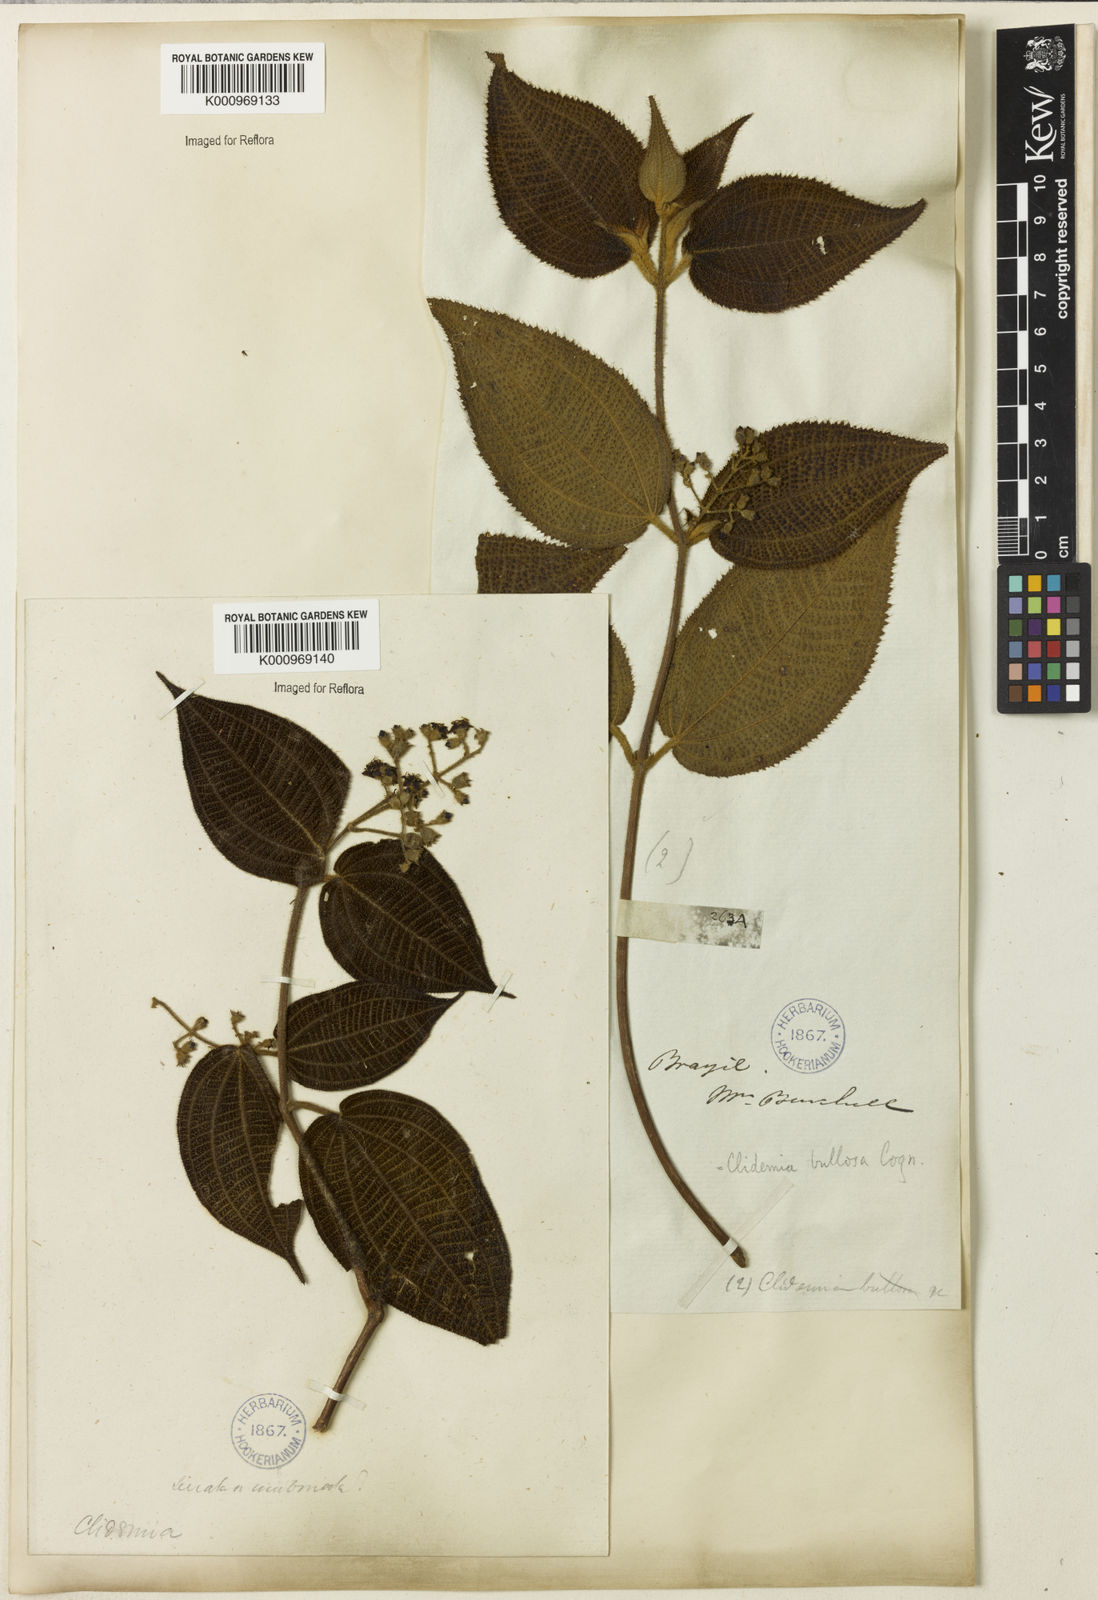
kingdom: Plantae
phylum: Tracheophyta
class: Magnoliopsida
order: Myrtales
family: Melastomataceae
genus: Miconia
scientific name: Miconia biserrata
